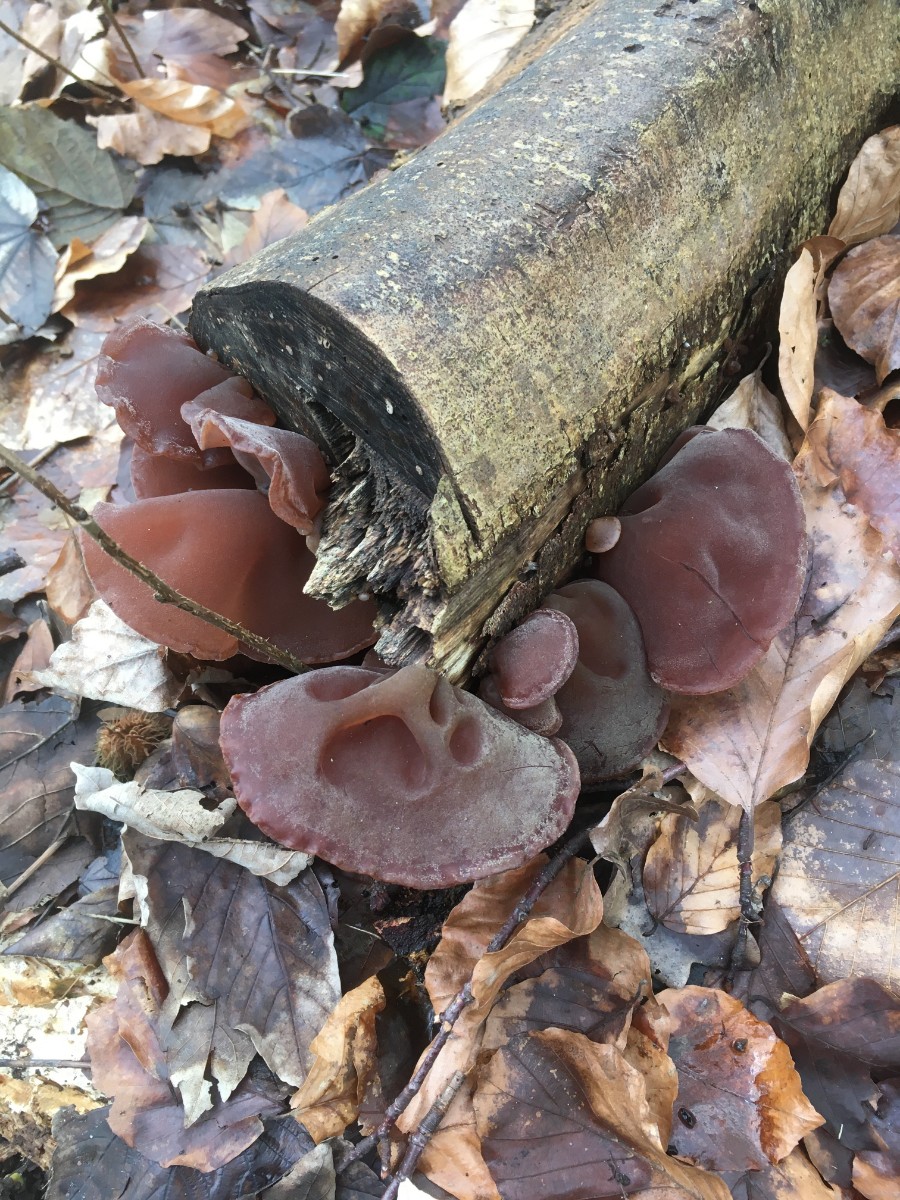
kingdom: Fungi
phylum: Basidiomycota
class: Agaricomycetes
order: Auriculariales
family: Auriculariaceae
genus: Auricularia
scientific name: Auricularia auricula-judae
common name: almindelig judasøre
